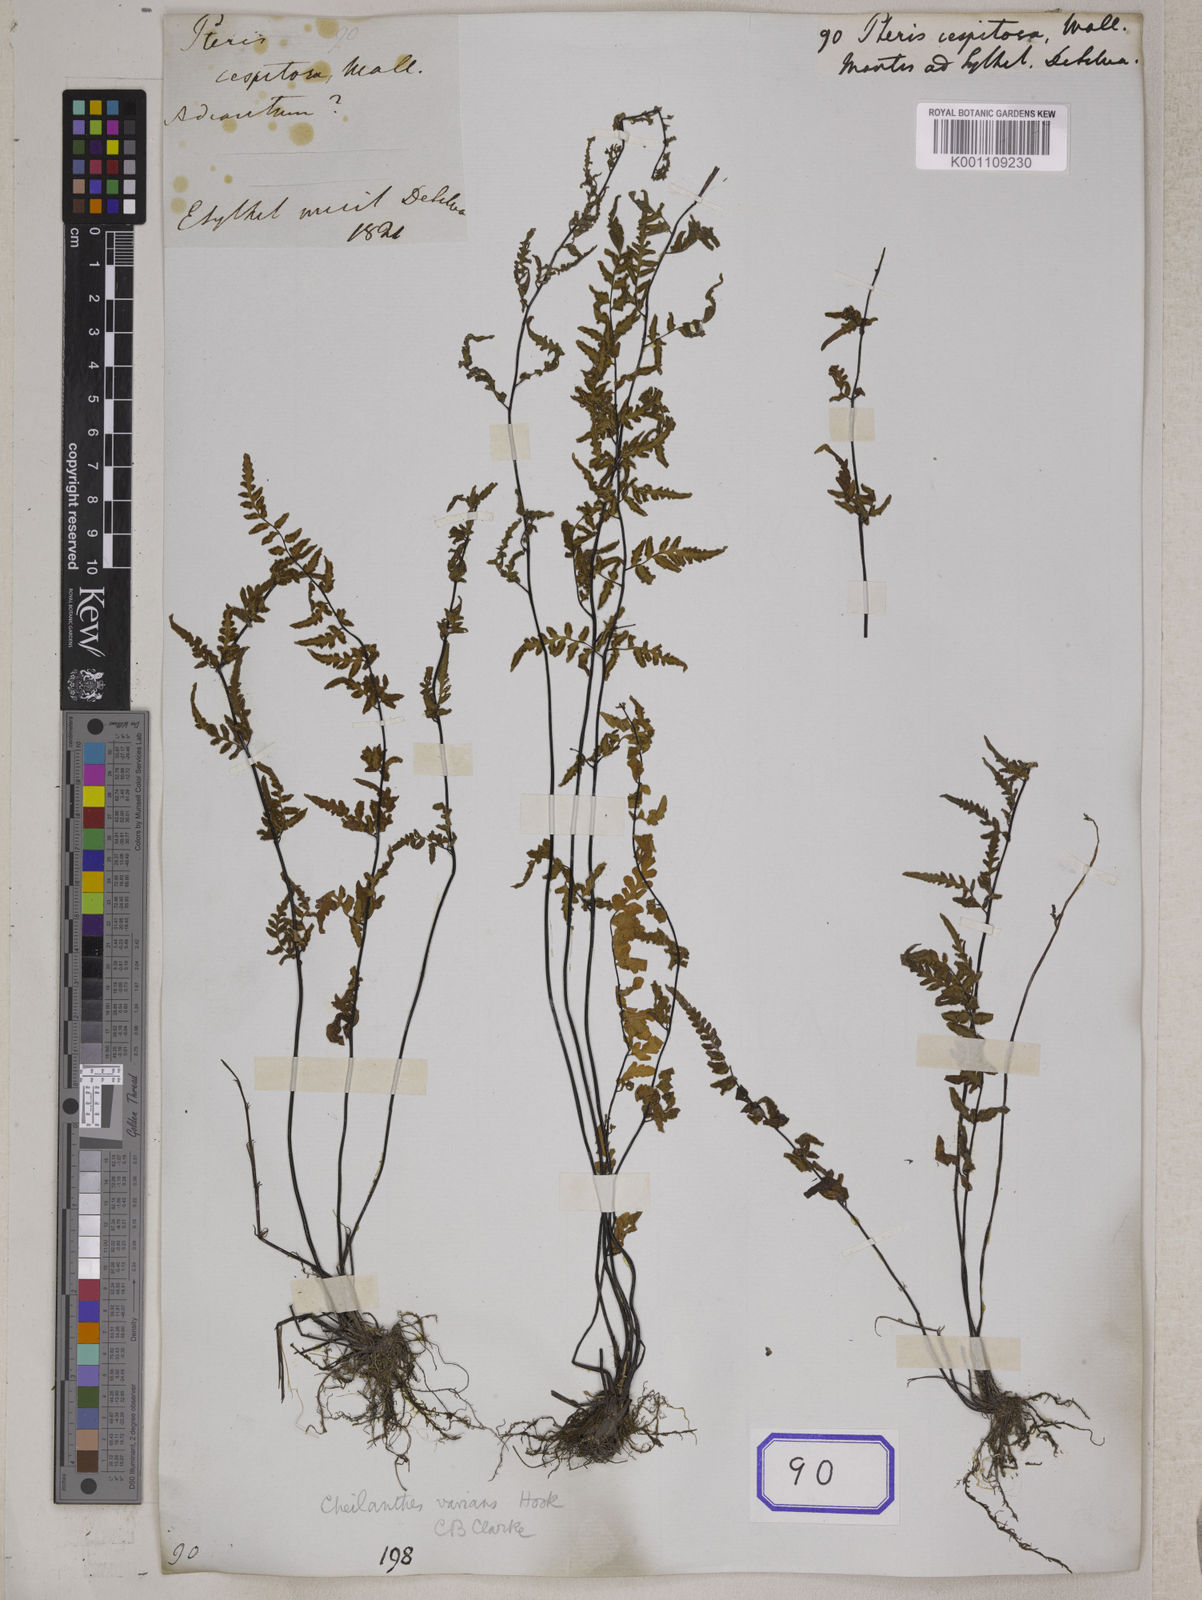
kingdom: Plantae
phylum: Tracheophyta
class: Polypodiopsida
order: Polypodiales
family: Pteridaceae
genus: Oeosporangium
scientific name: Oeosporangium belangeri
